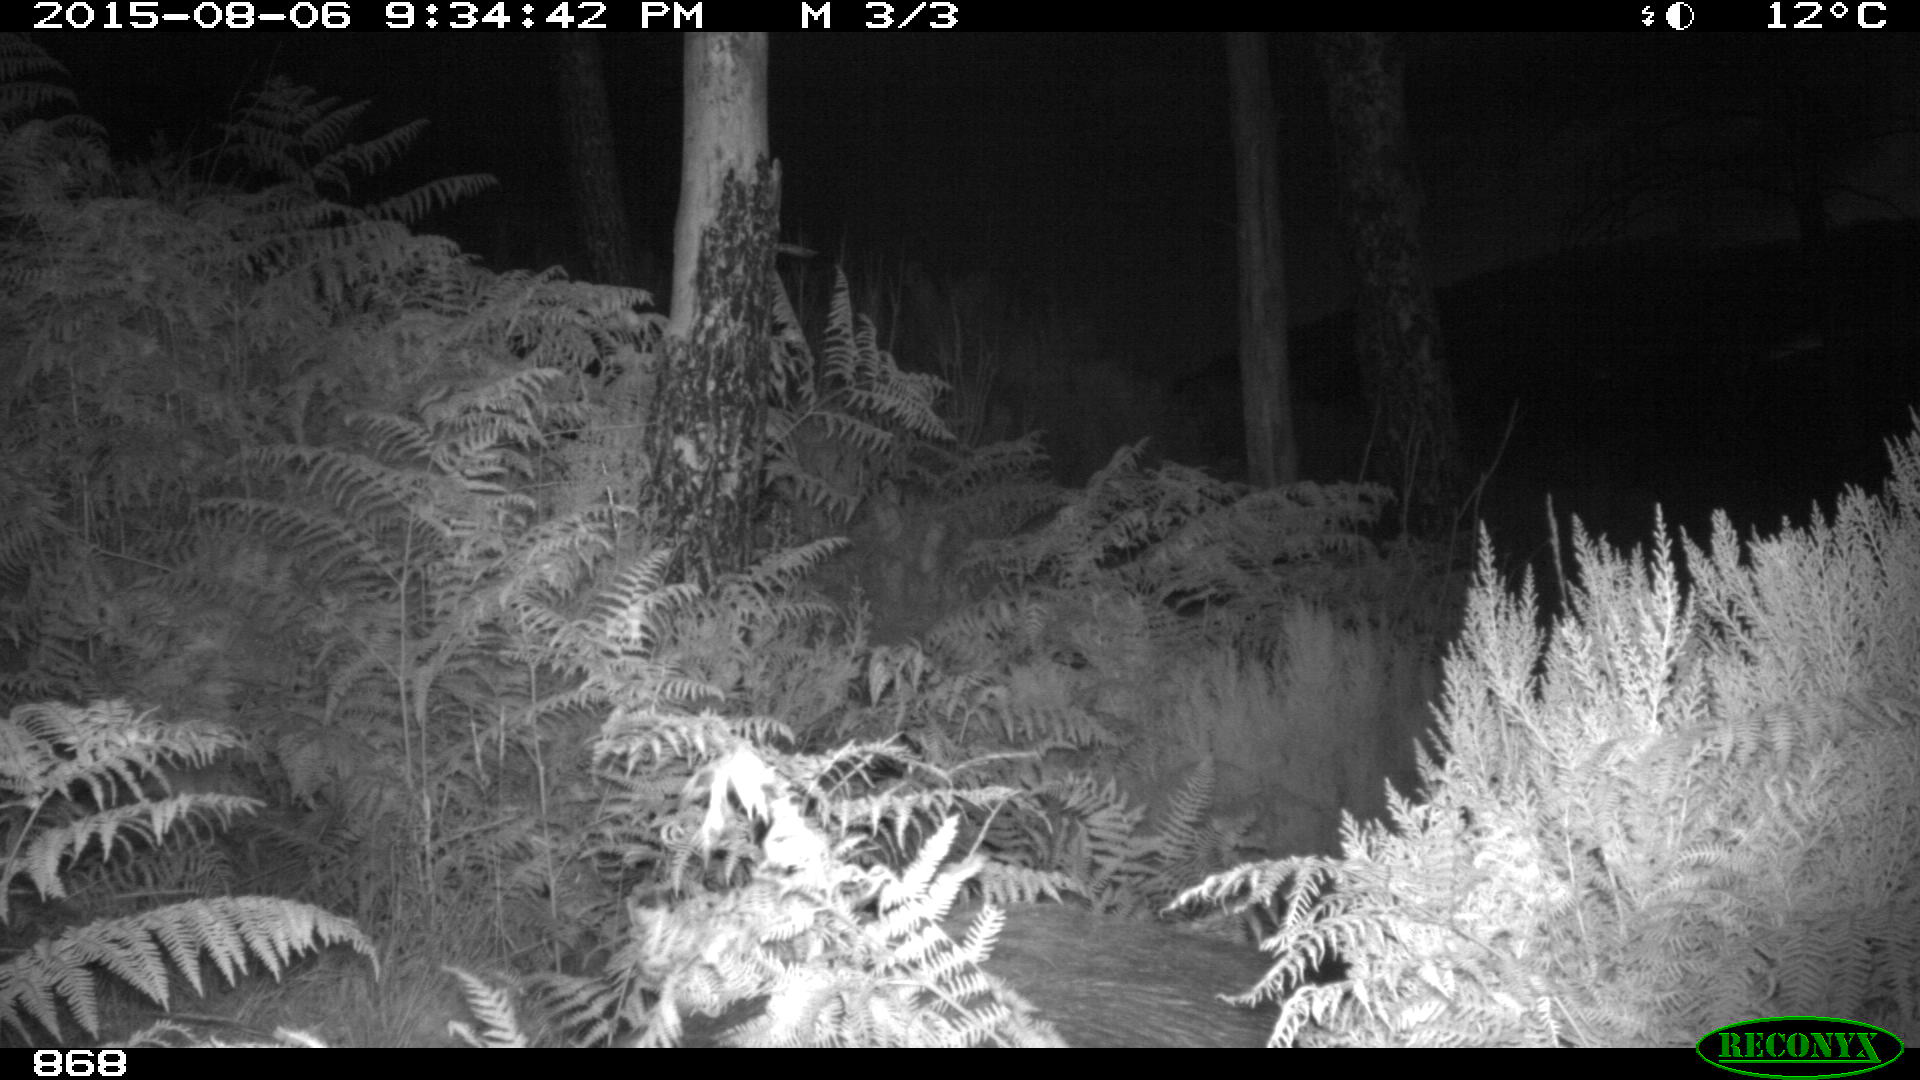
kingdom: Animalia
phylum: Chordata
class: Mammalia
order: Artiodactyla
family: Suidae
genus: Sus
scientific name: Sus scrofa
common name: Wild boar
